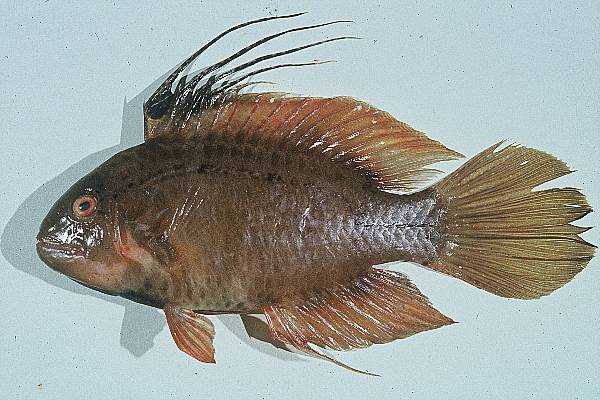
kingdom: Animalia
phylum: Chordata
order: Perciformes
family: Labridae
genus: Pteragogus
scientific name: Pteragogus flagellifer
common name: Cocktail wrasse
